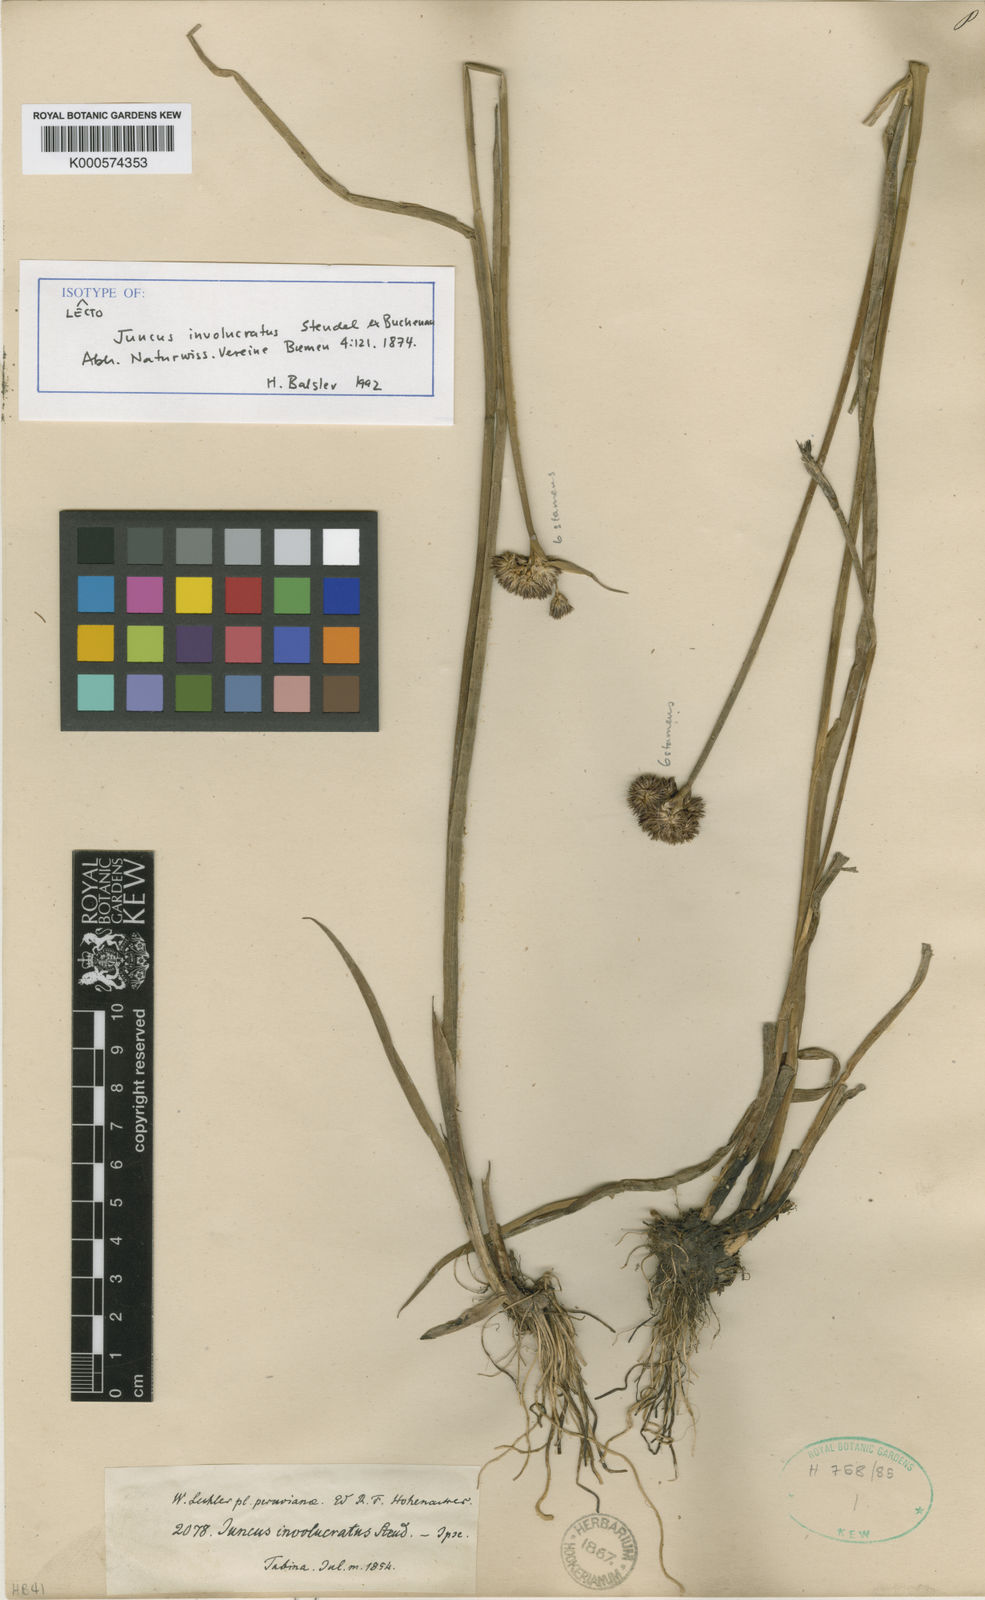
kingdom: Plantae
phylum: Tracheophyta
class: Liliopsida
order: Poales
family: Juncaceae
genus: Juncus
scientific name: Juncus microcephalus
